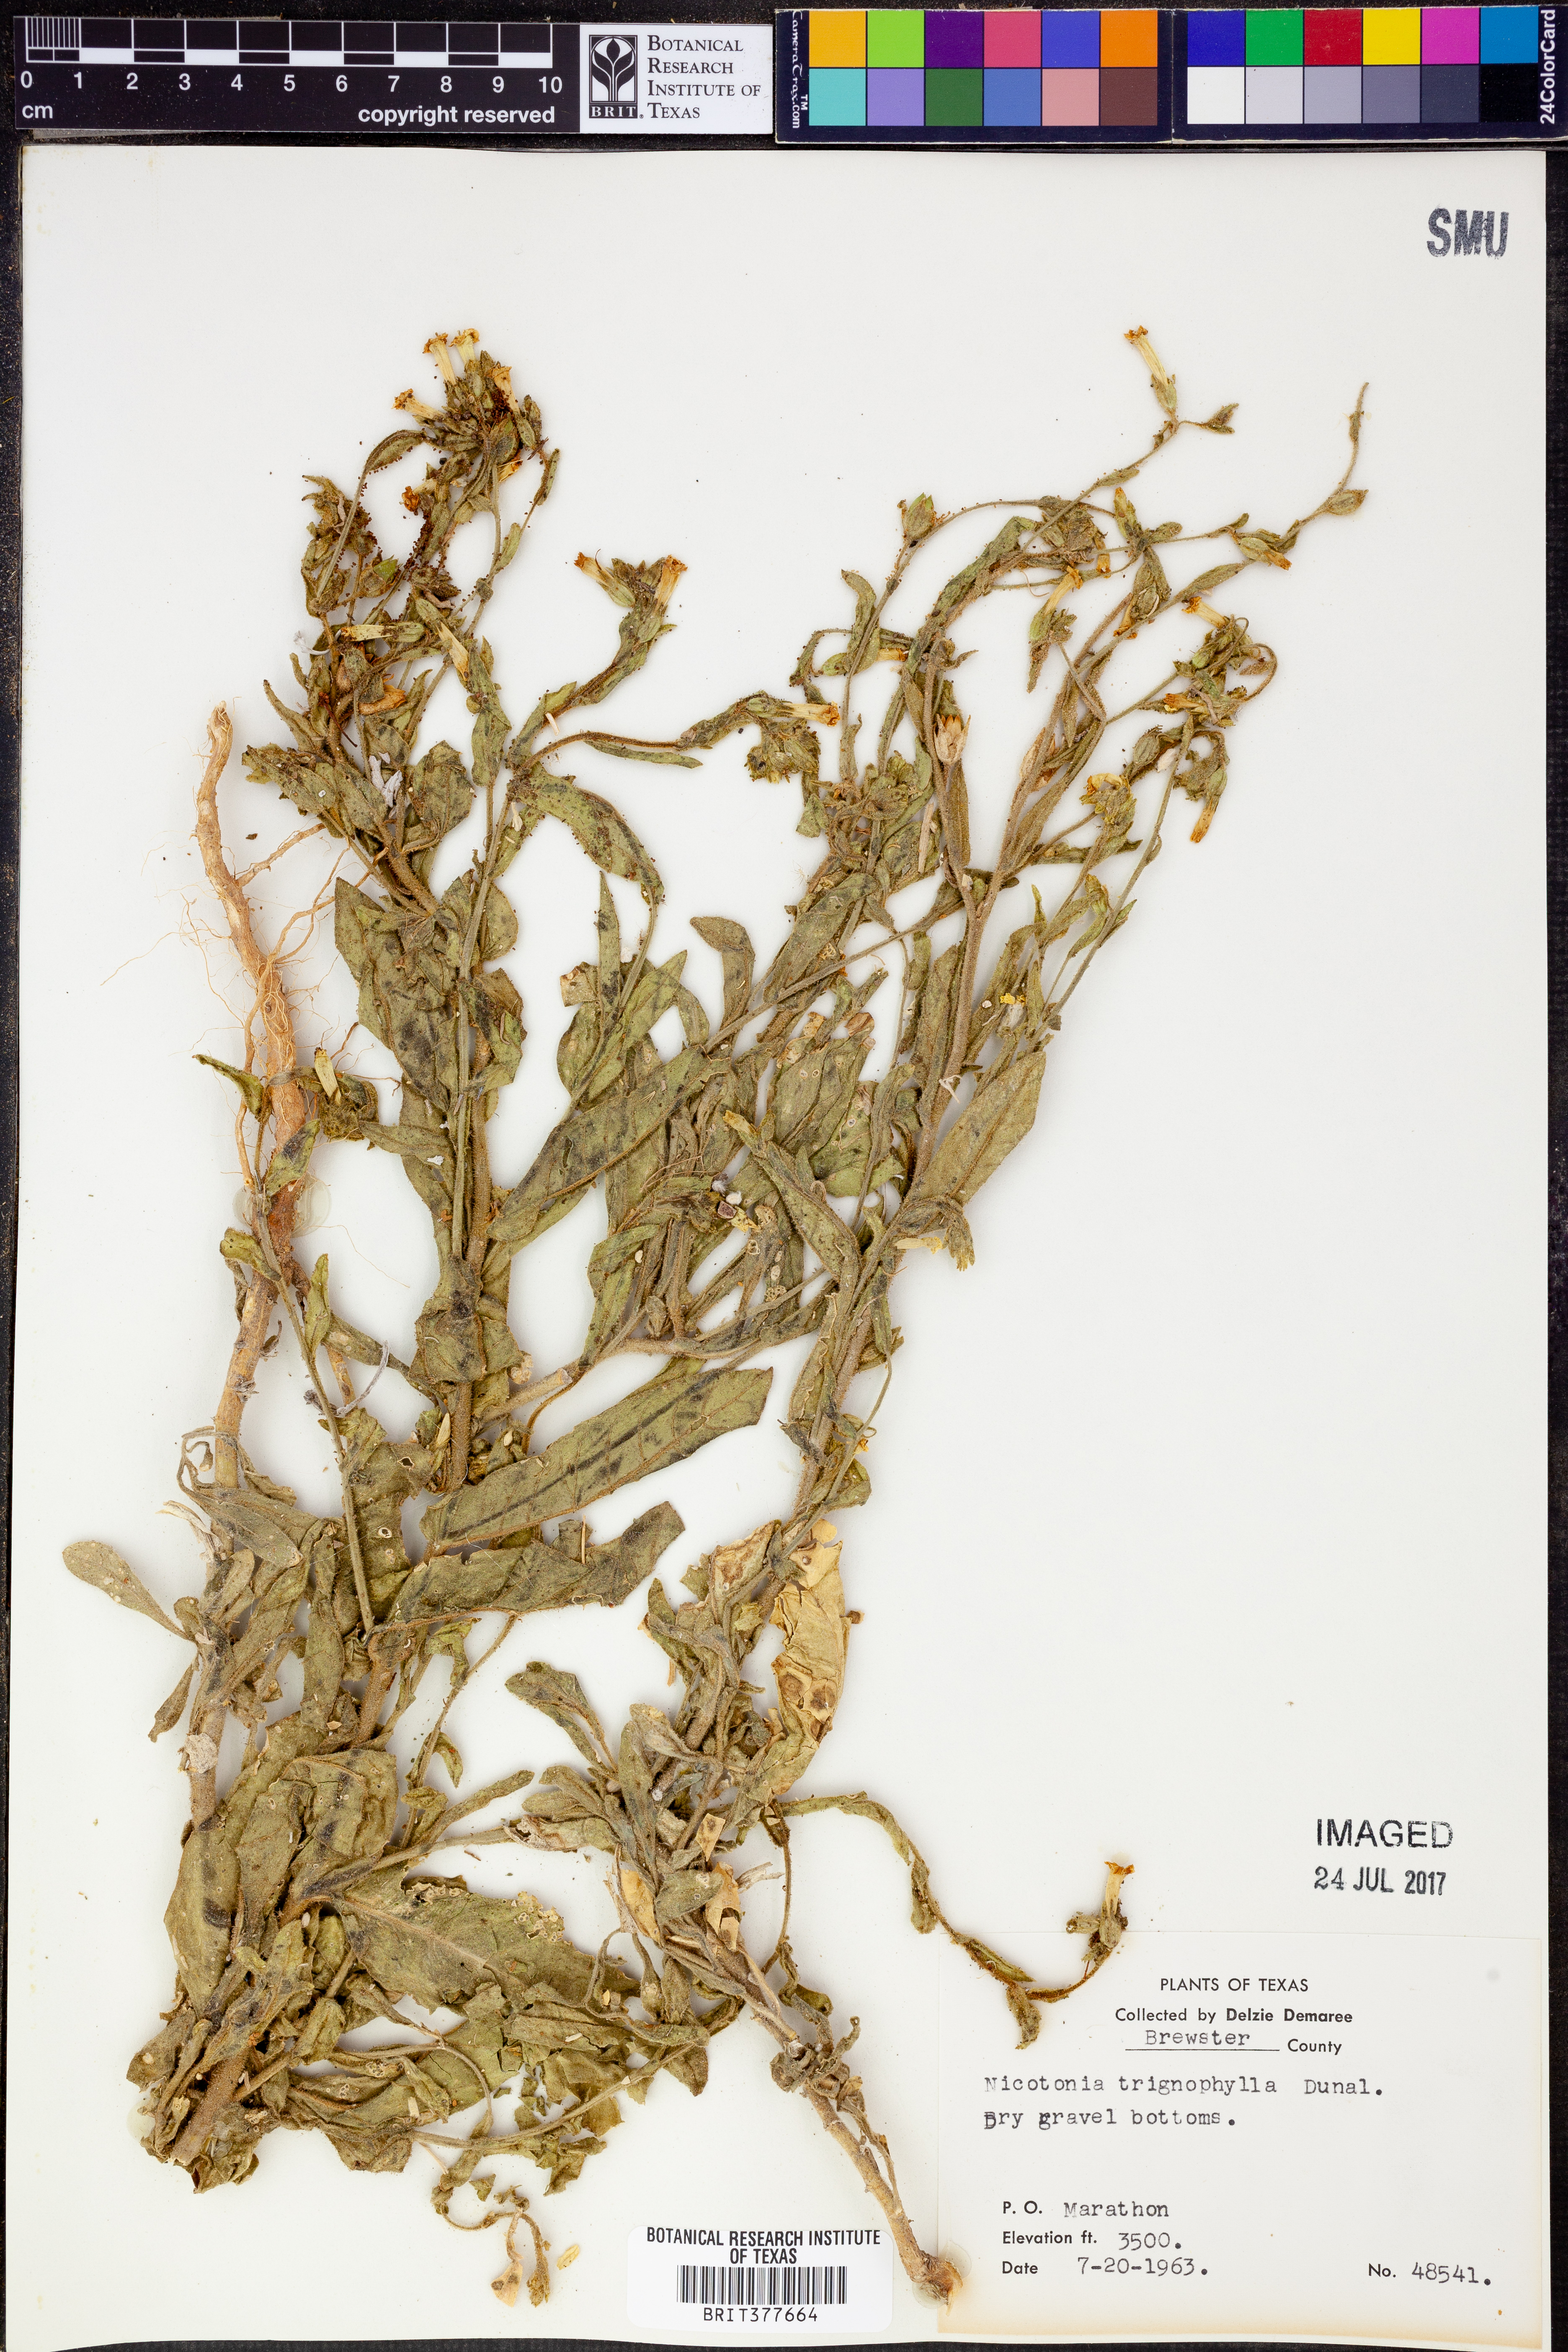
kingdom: Plantae
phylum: Tracheophyta
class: Magnoliopsida
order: Solanales
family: Solanaceae
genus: Nicotiana
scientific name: Nicotiana obtusifolia
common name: Desert tobacco
